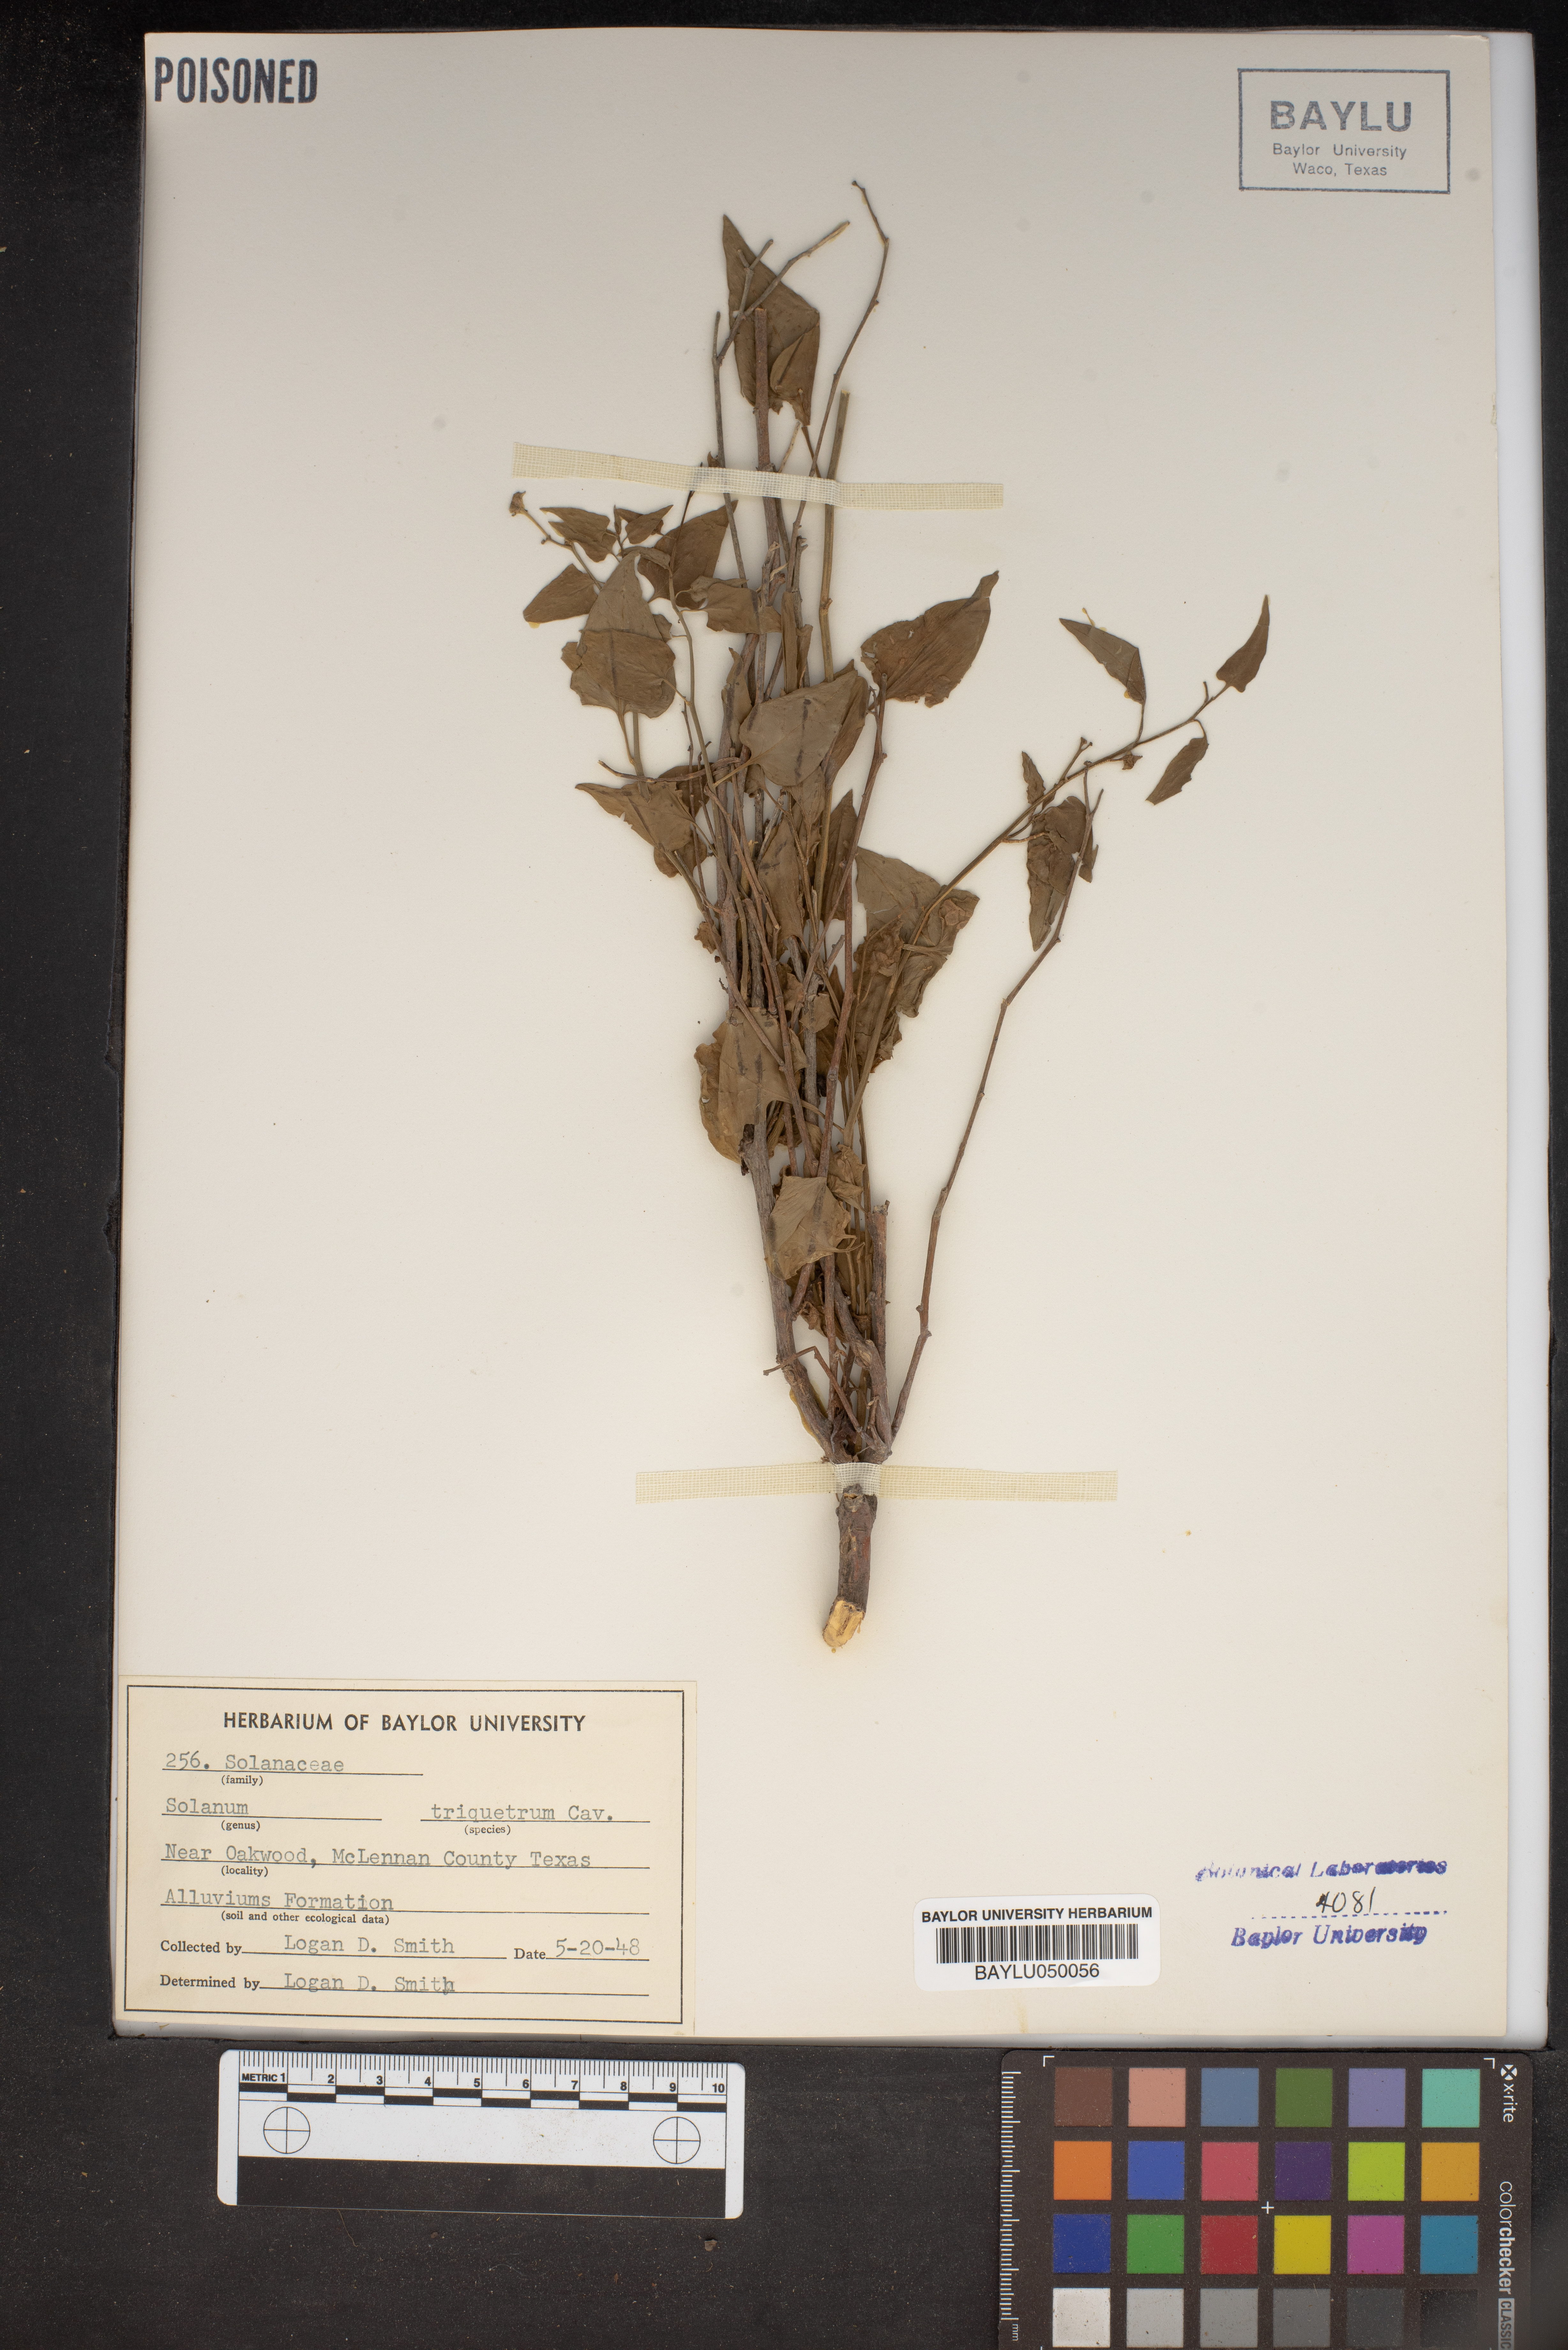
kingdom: Plantae
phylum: Tracheophyta
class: Magnoliopsida
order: Solanales
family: Solanaceae
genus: Solanum
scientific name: Solanum triquetrum
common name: Texas nightshade
